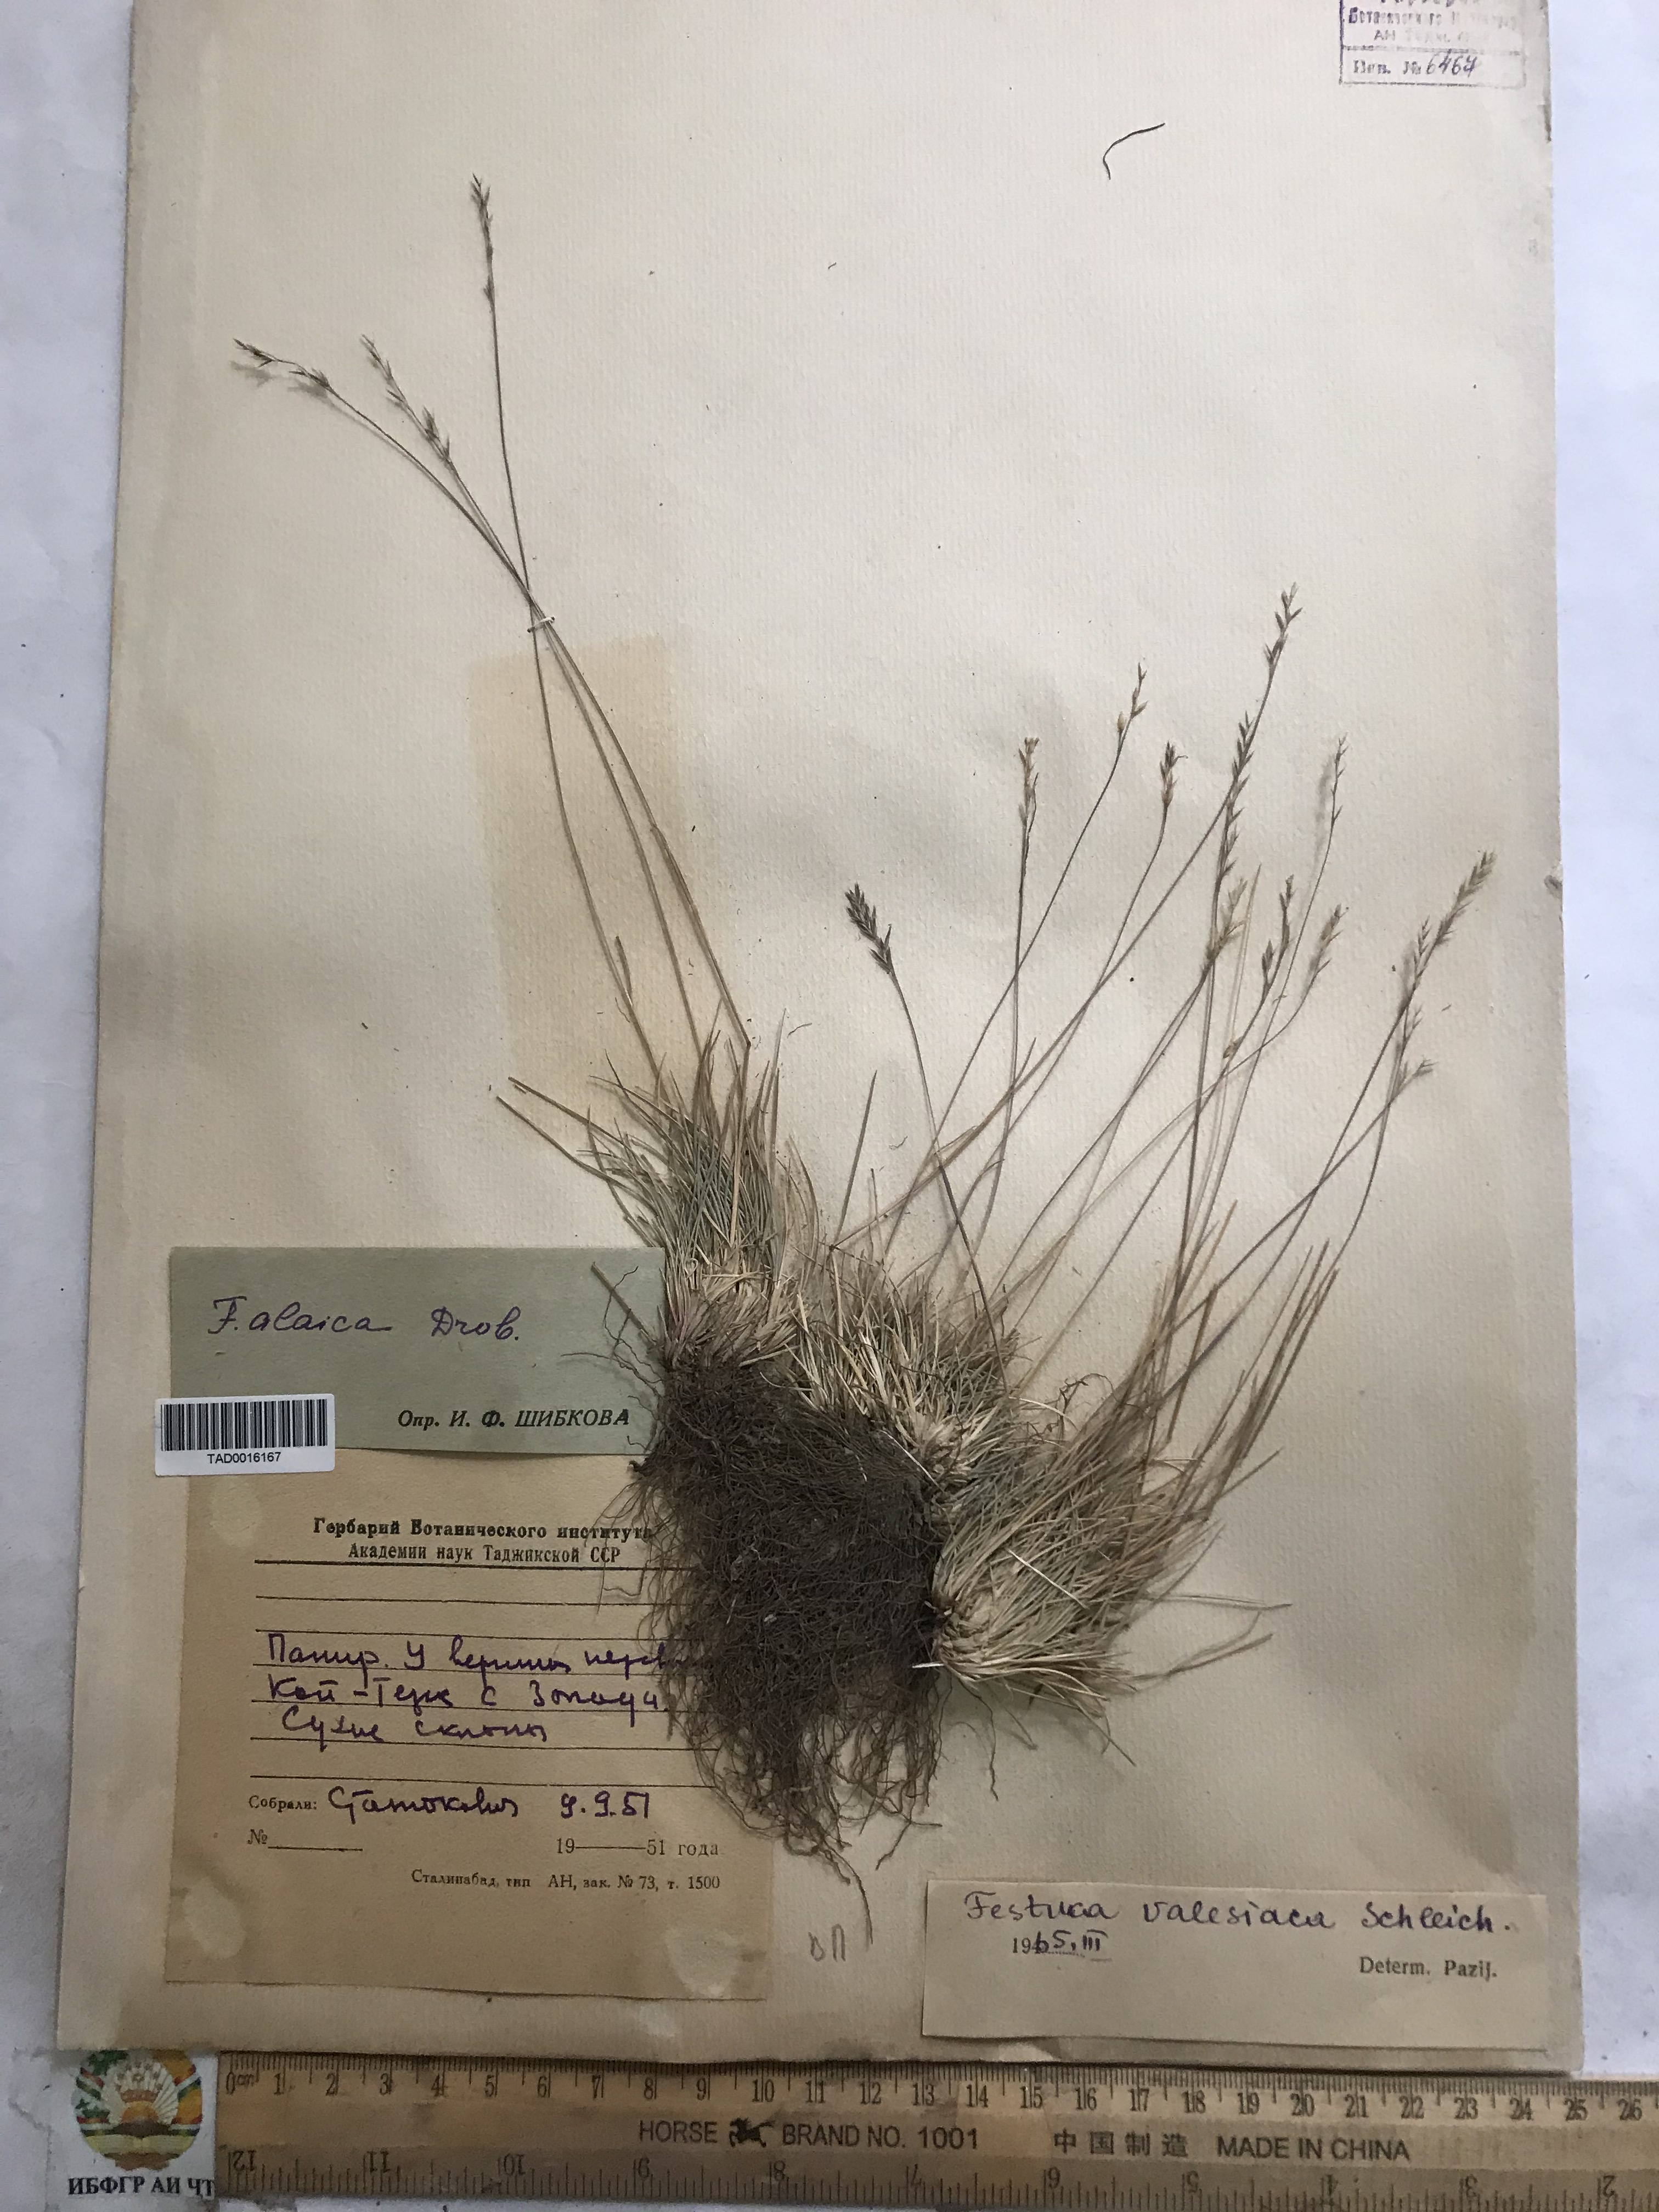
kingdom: Plantae
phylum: Tracheophyta
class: Liliopsida
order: Poales
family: Poaceae
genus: Festuca
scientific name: Festuca valesiaca
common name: Volga fescue
